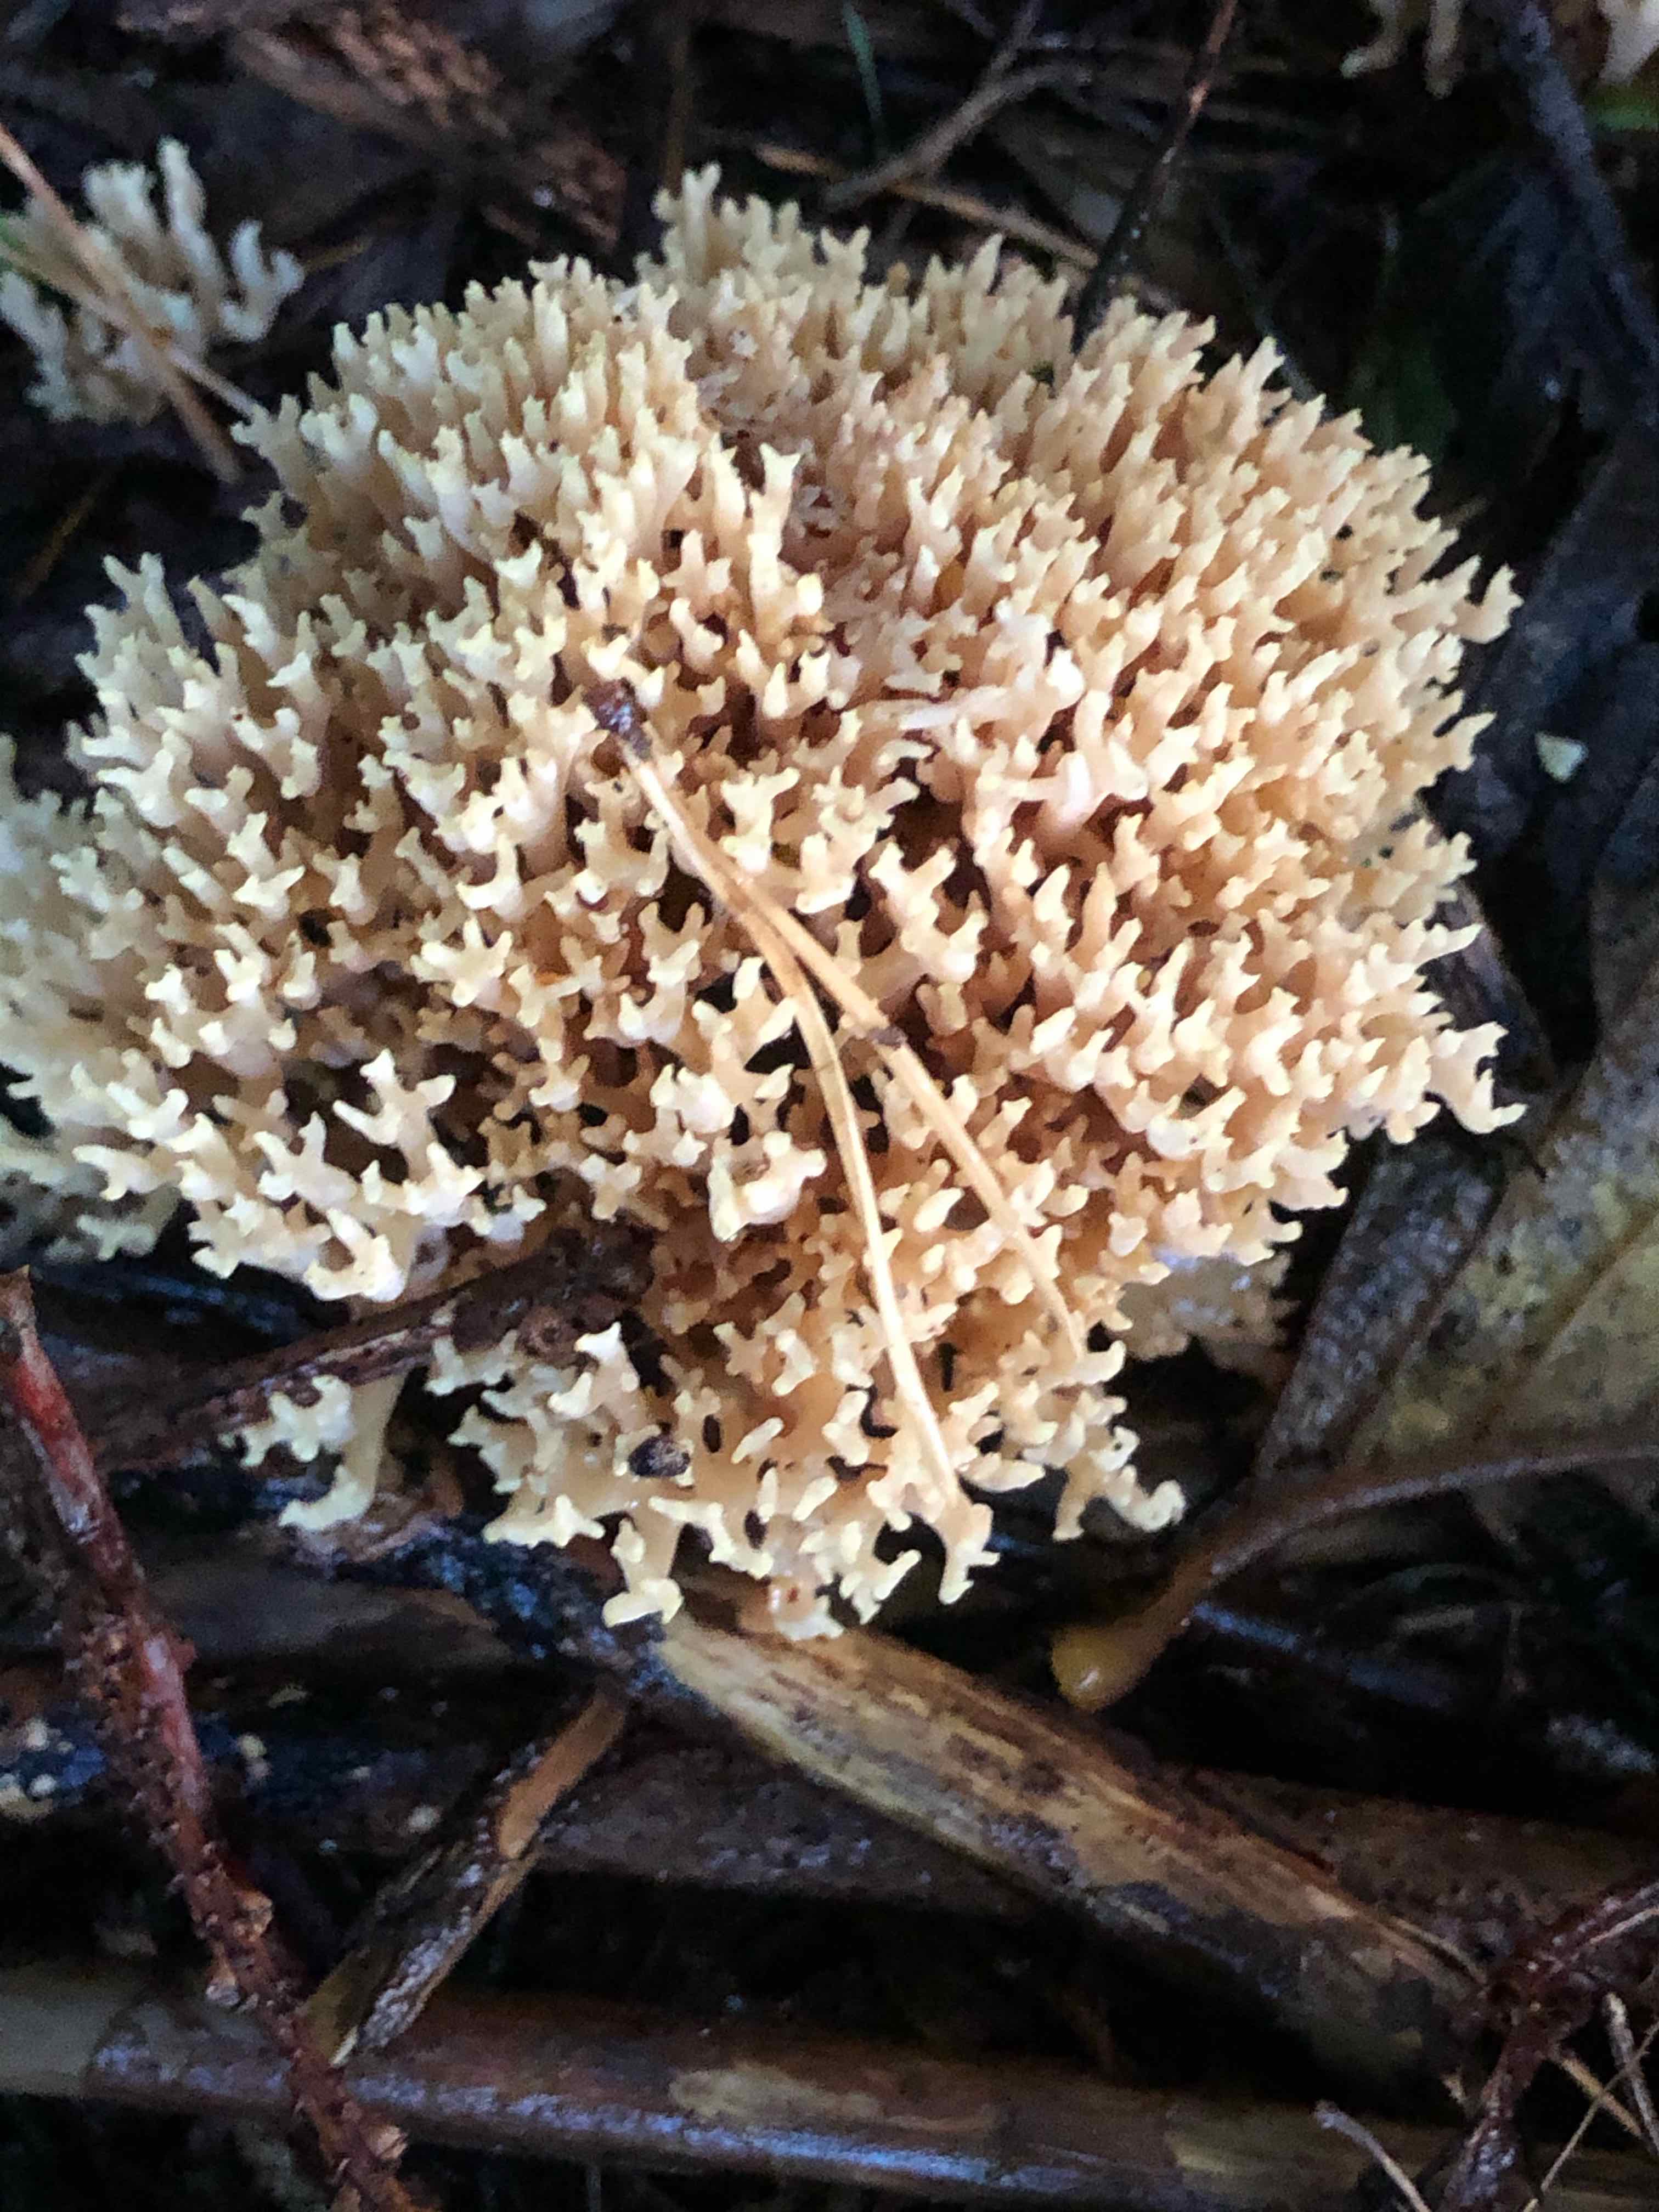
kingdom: Fungi
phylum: Basidiomycota
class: Agaricomycetes
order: Gomphales
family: Gomphaceae
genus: Ramaria
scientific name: Ramaria stricta
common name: rank koralsvamp
